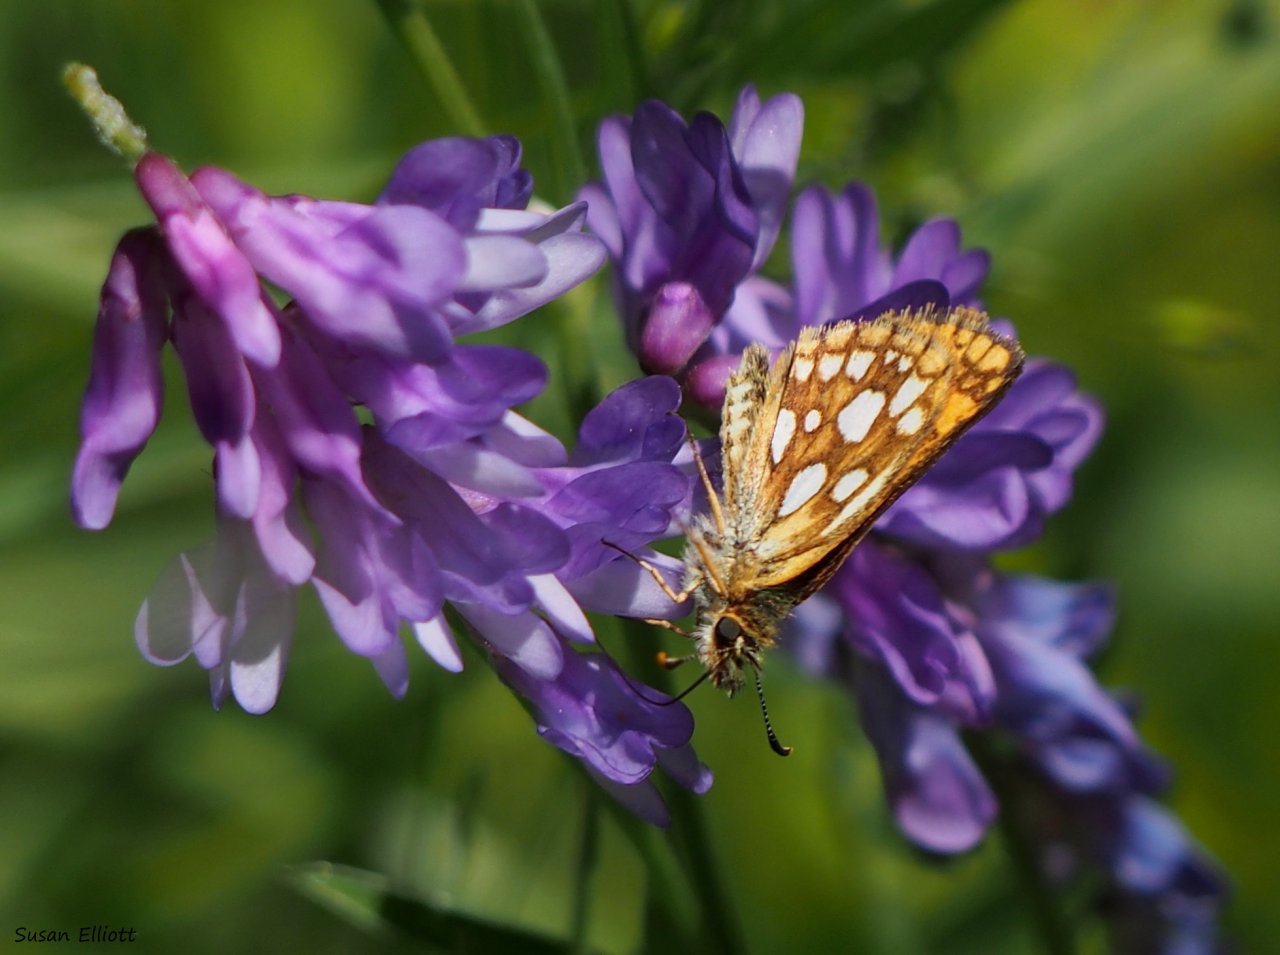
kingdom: Animalia
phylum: Arthropoda
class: Insecta
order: Lepidoptera
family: Hesperiidae
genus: Carterocephalus
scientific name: Carterocephalus palaemon
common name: Chequered Skipper
